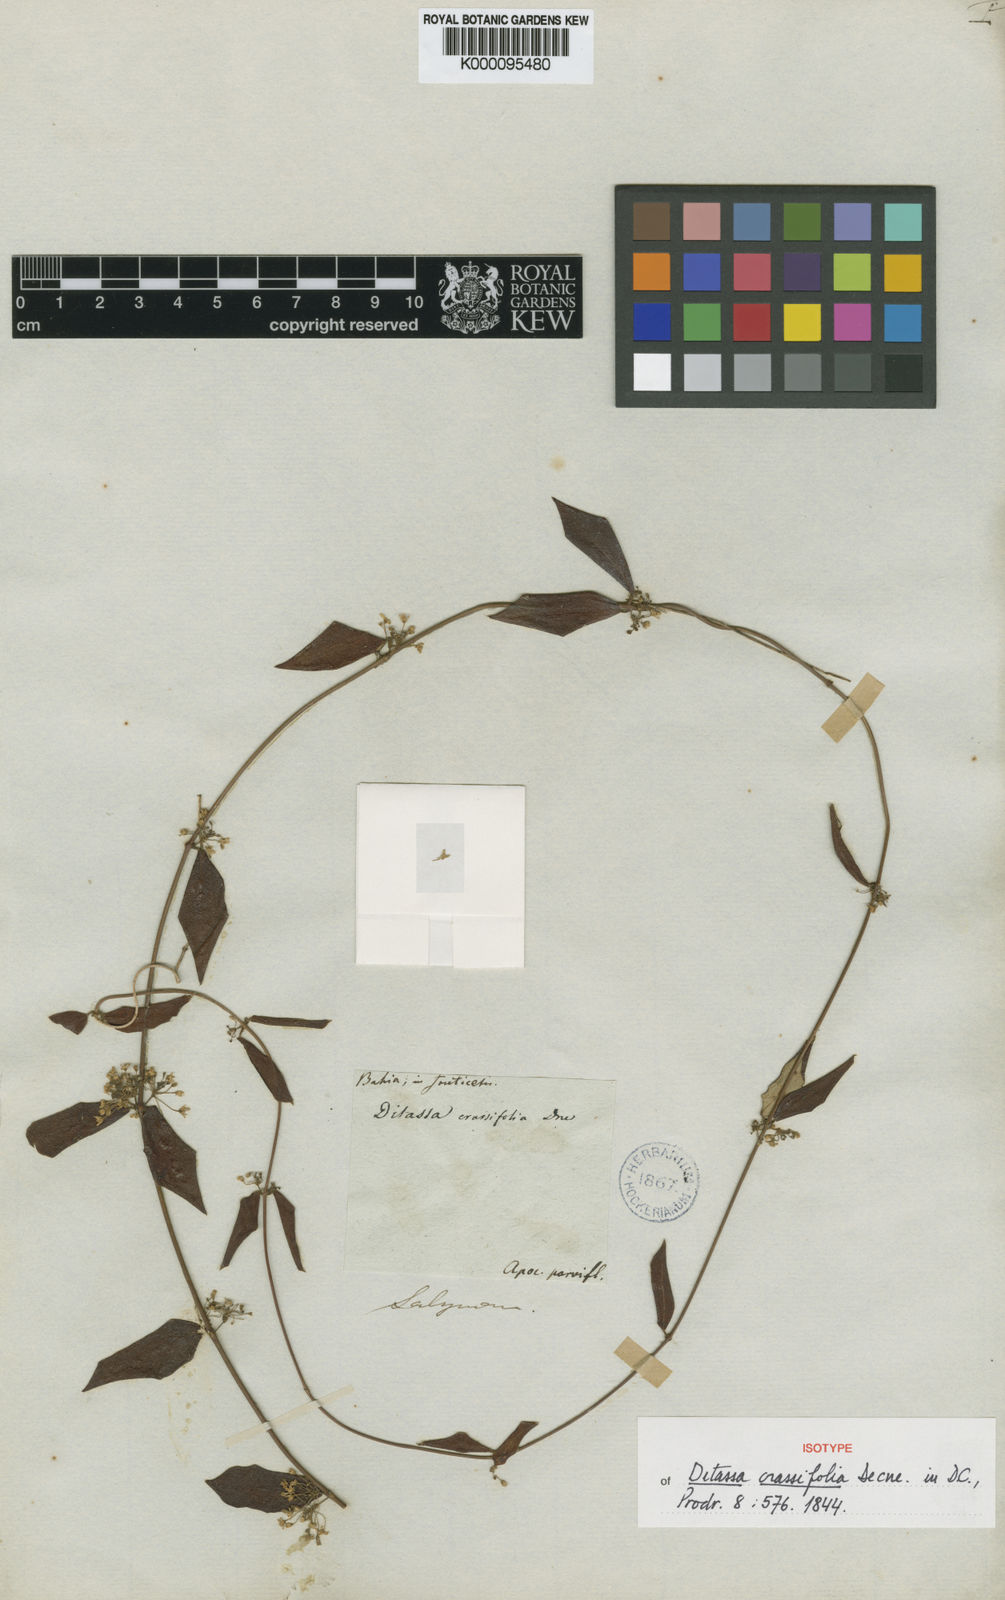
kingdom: Plantae
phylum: Tracheophyta
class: Magnoliopsida
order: Gentianales
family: Apocynaceae
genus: Ditassa
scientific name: Ditassa crassifolia
